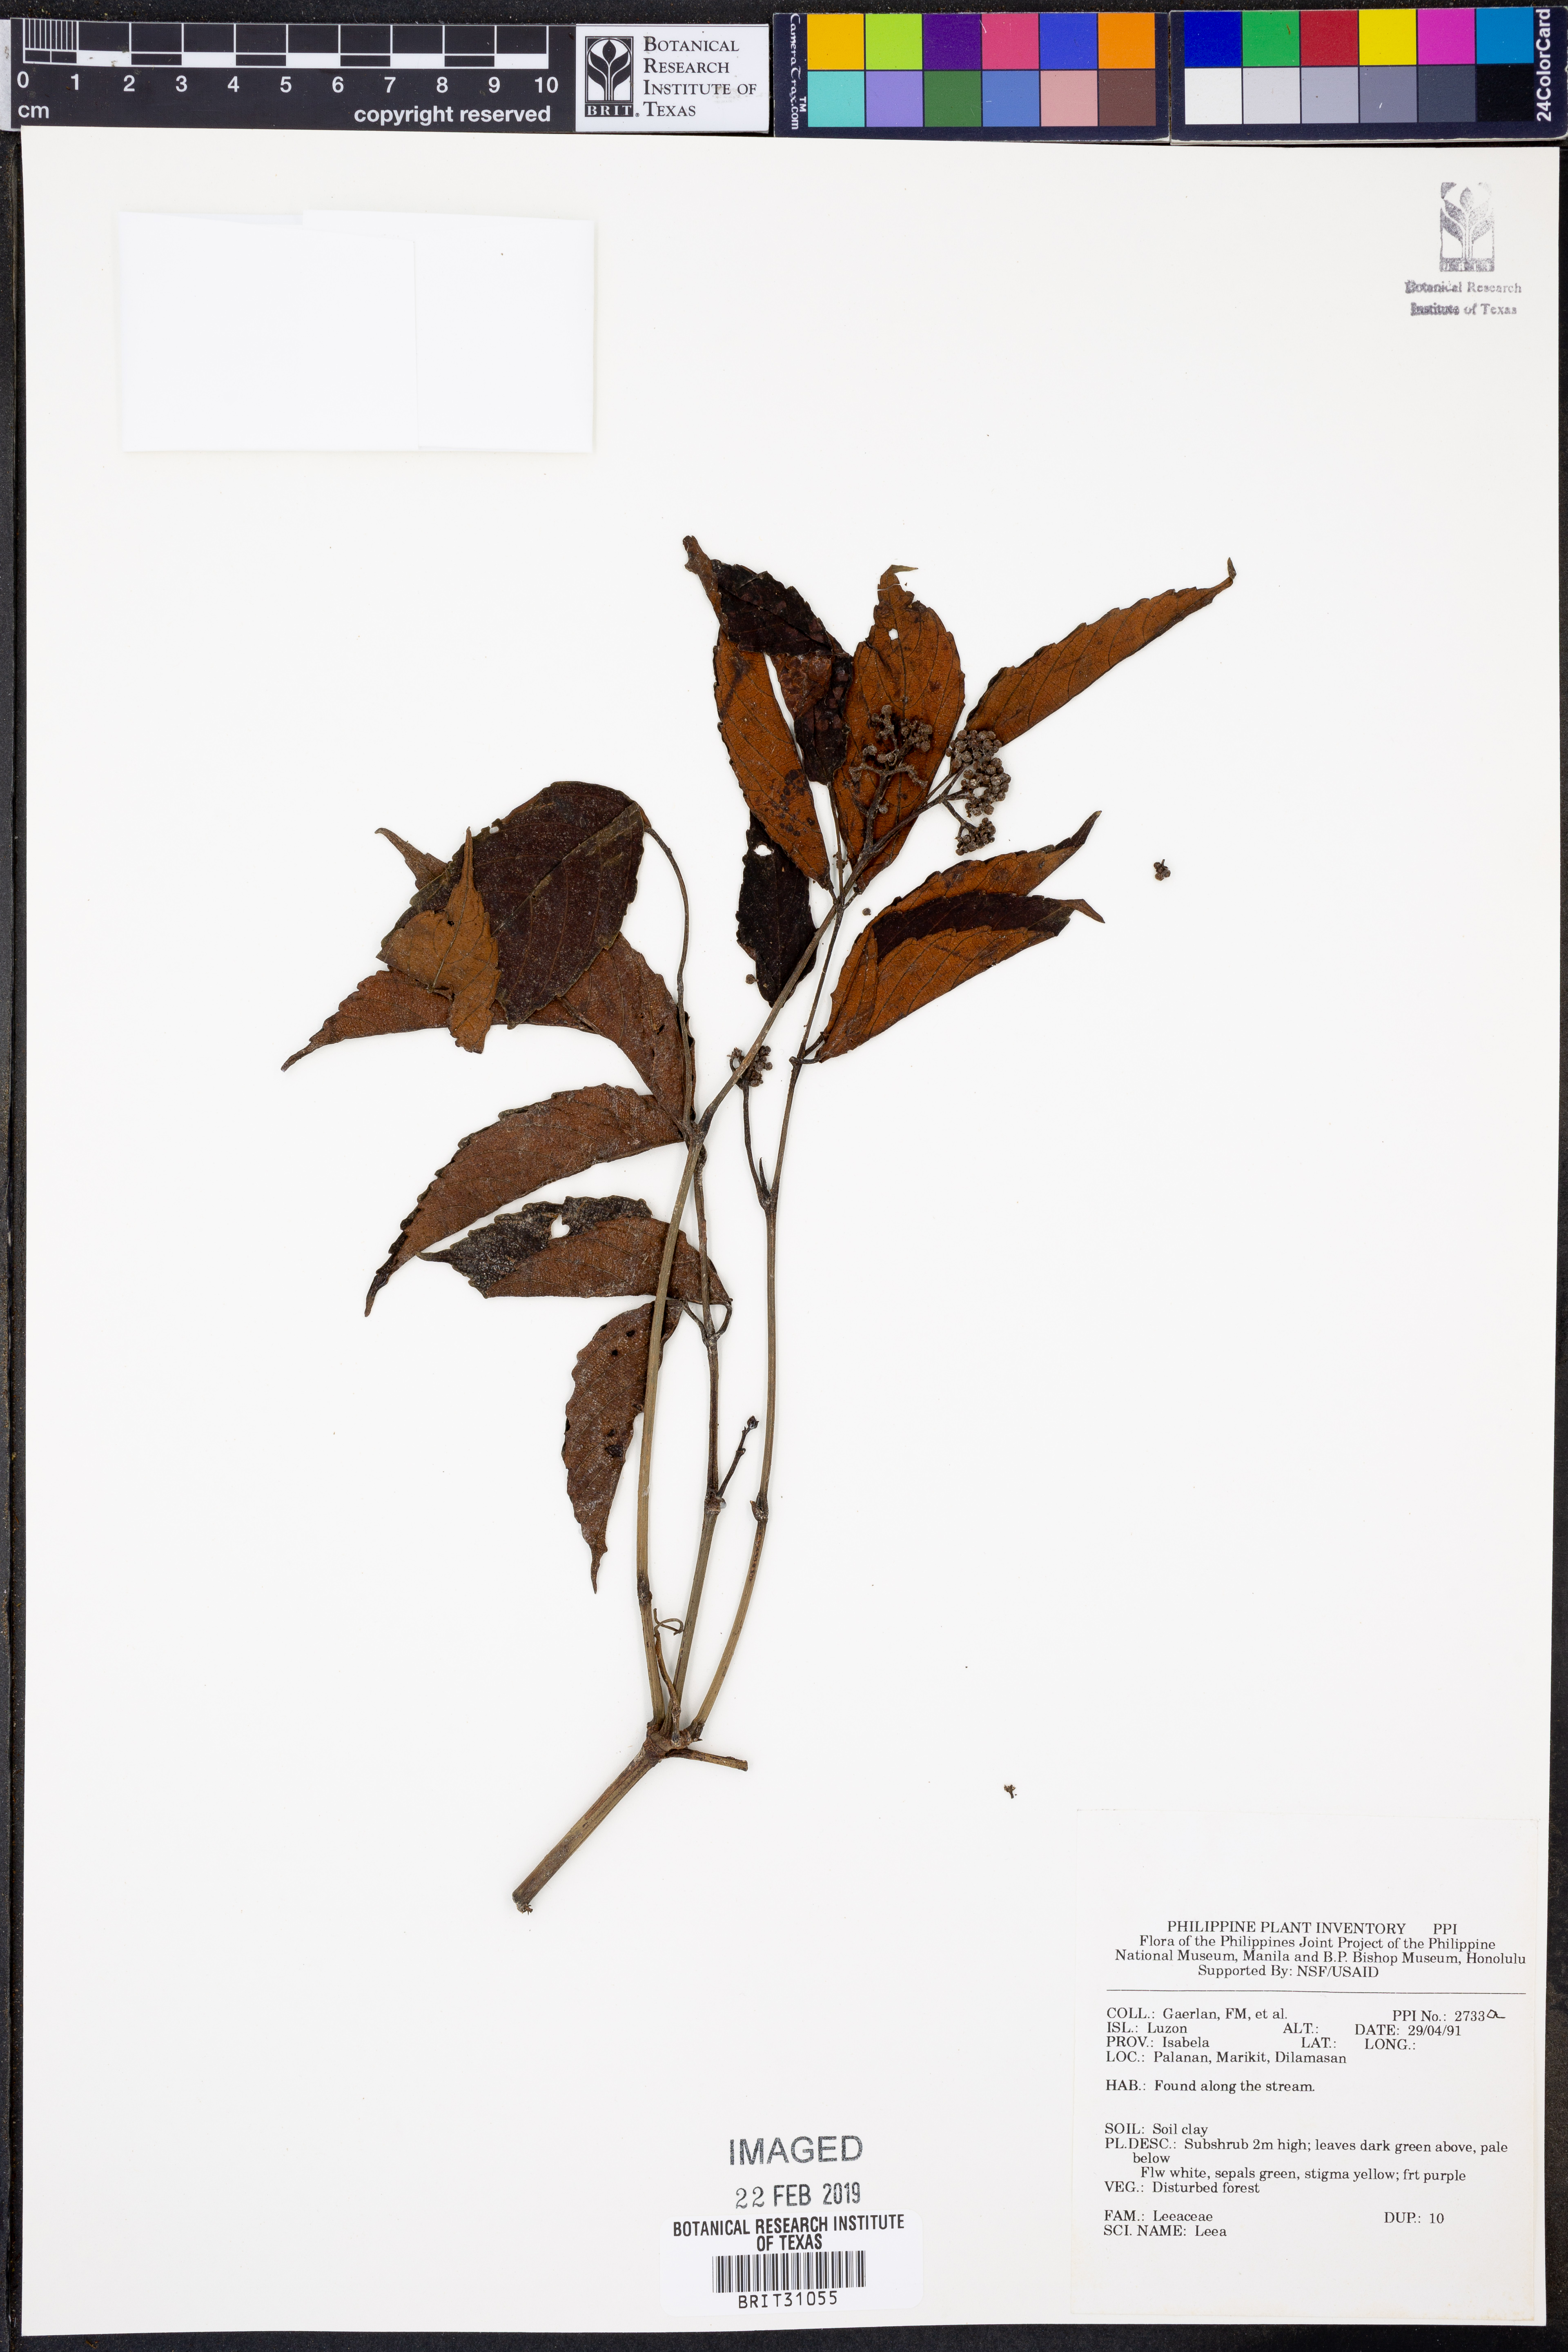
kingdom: Plantae
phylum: Tracheophyta
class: Magnoliopsida
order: Vitales
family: Vitaceae
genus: Leea
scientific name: Leea
